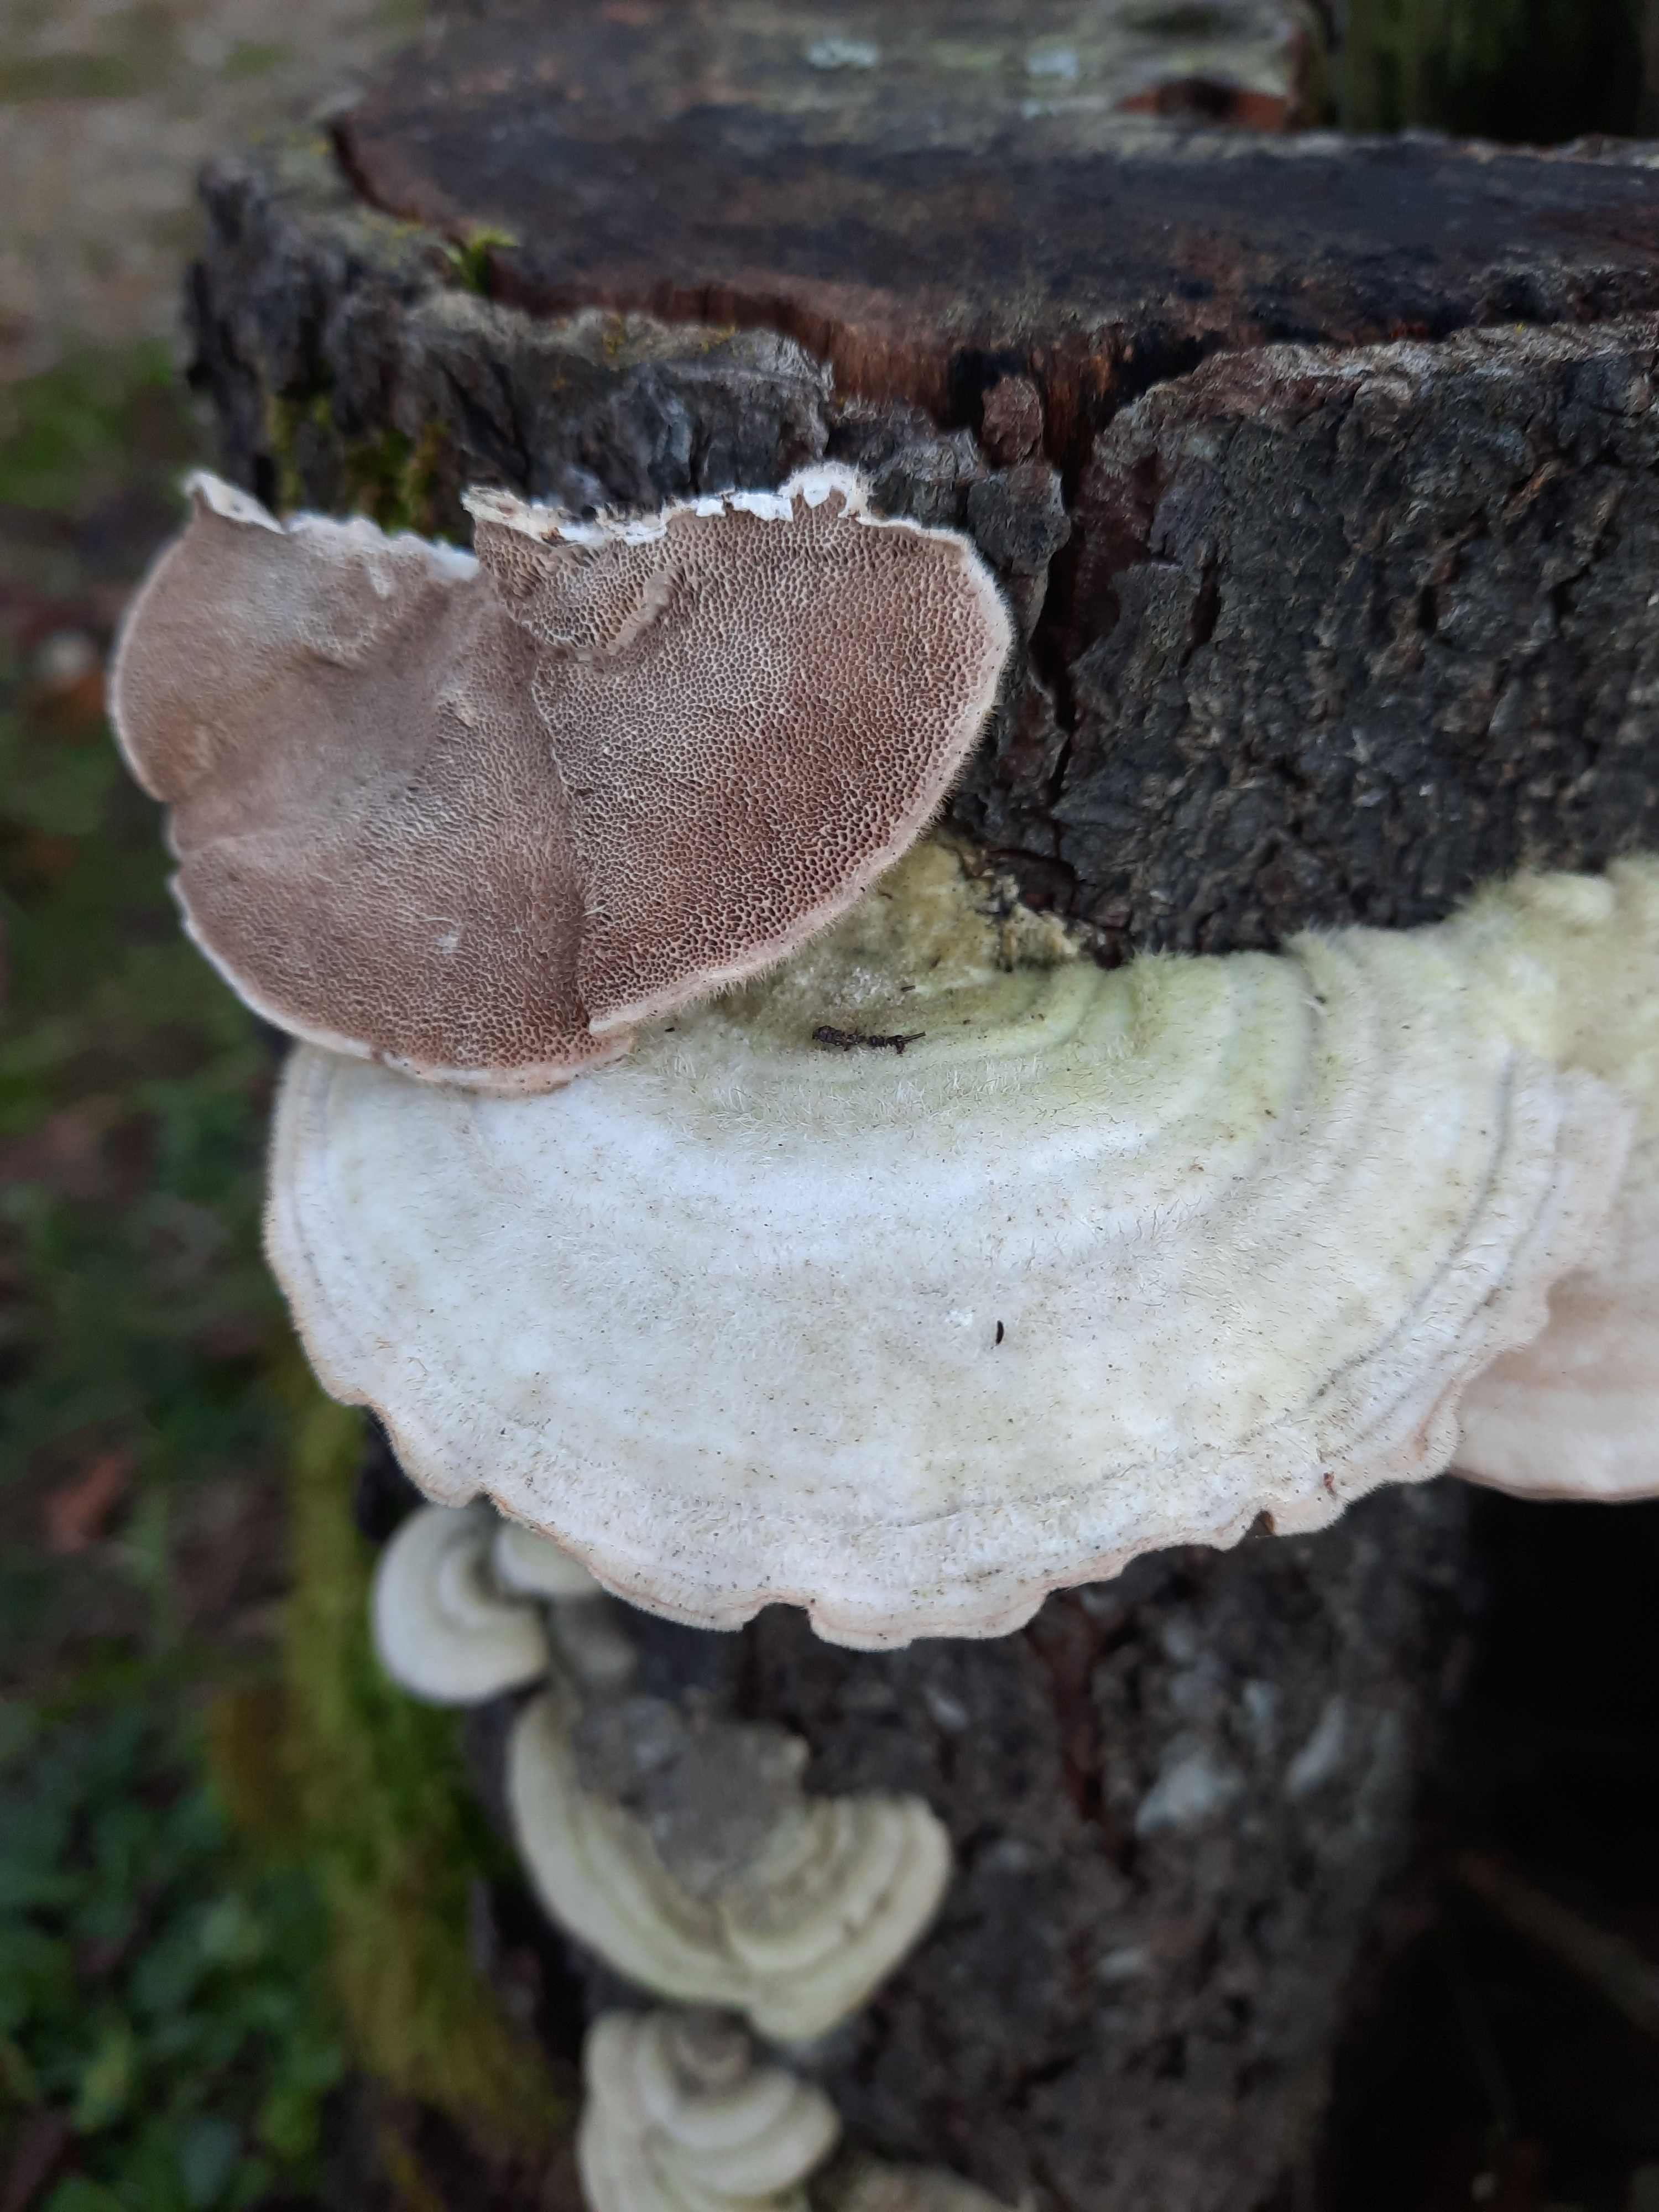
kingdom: Fungi
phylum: Basidiomycota
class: Agaricomycetes
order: Polyporales
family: Polyporaceae
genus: Trametes
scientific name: Trametes hirsuta
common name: håret læderporesvamp
